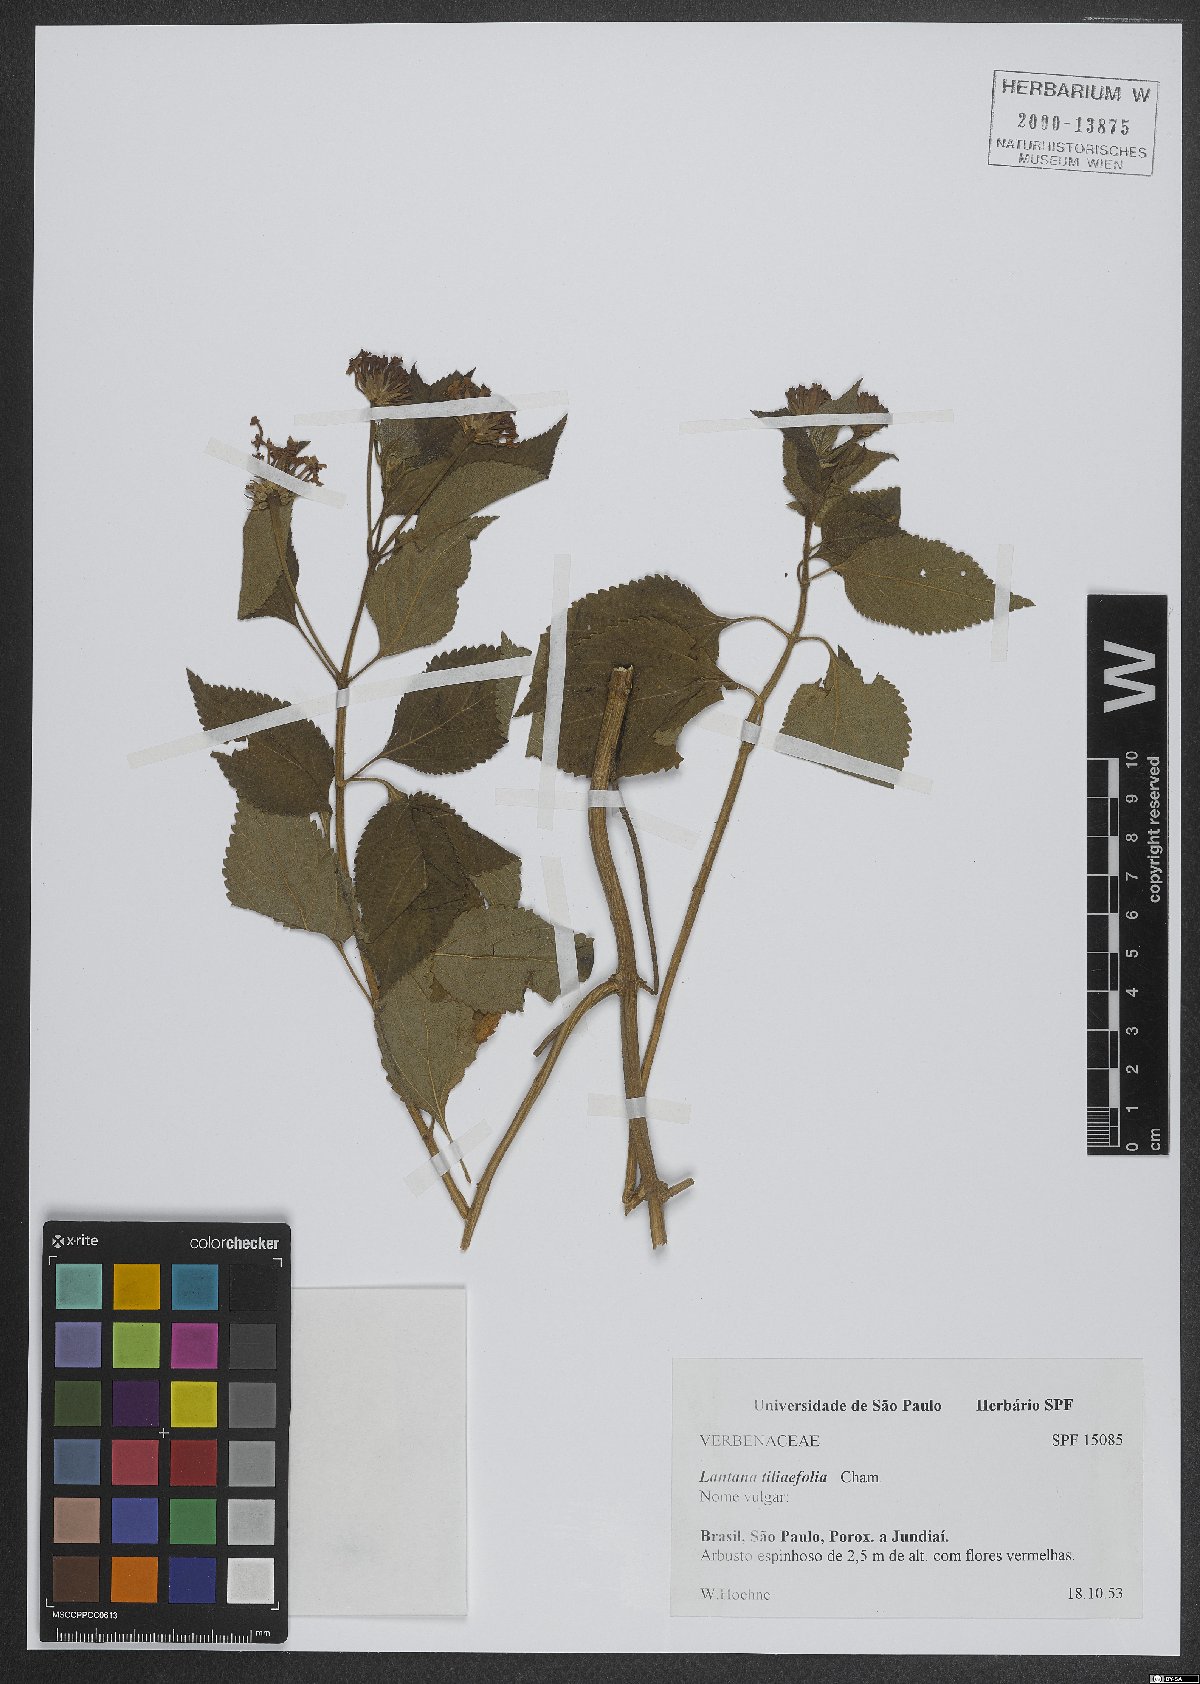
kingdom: Plantae
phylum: Tracheophyta
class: Magnoliopsida
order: Lamiales
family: Verbenaceae
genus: Lantana
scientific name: Lantana horrida
